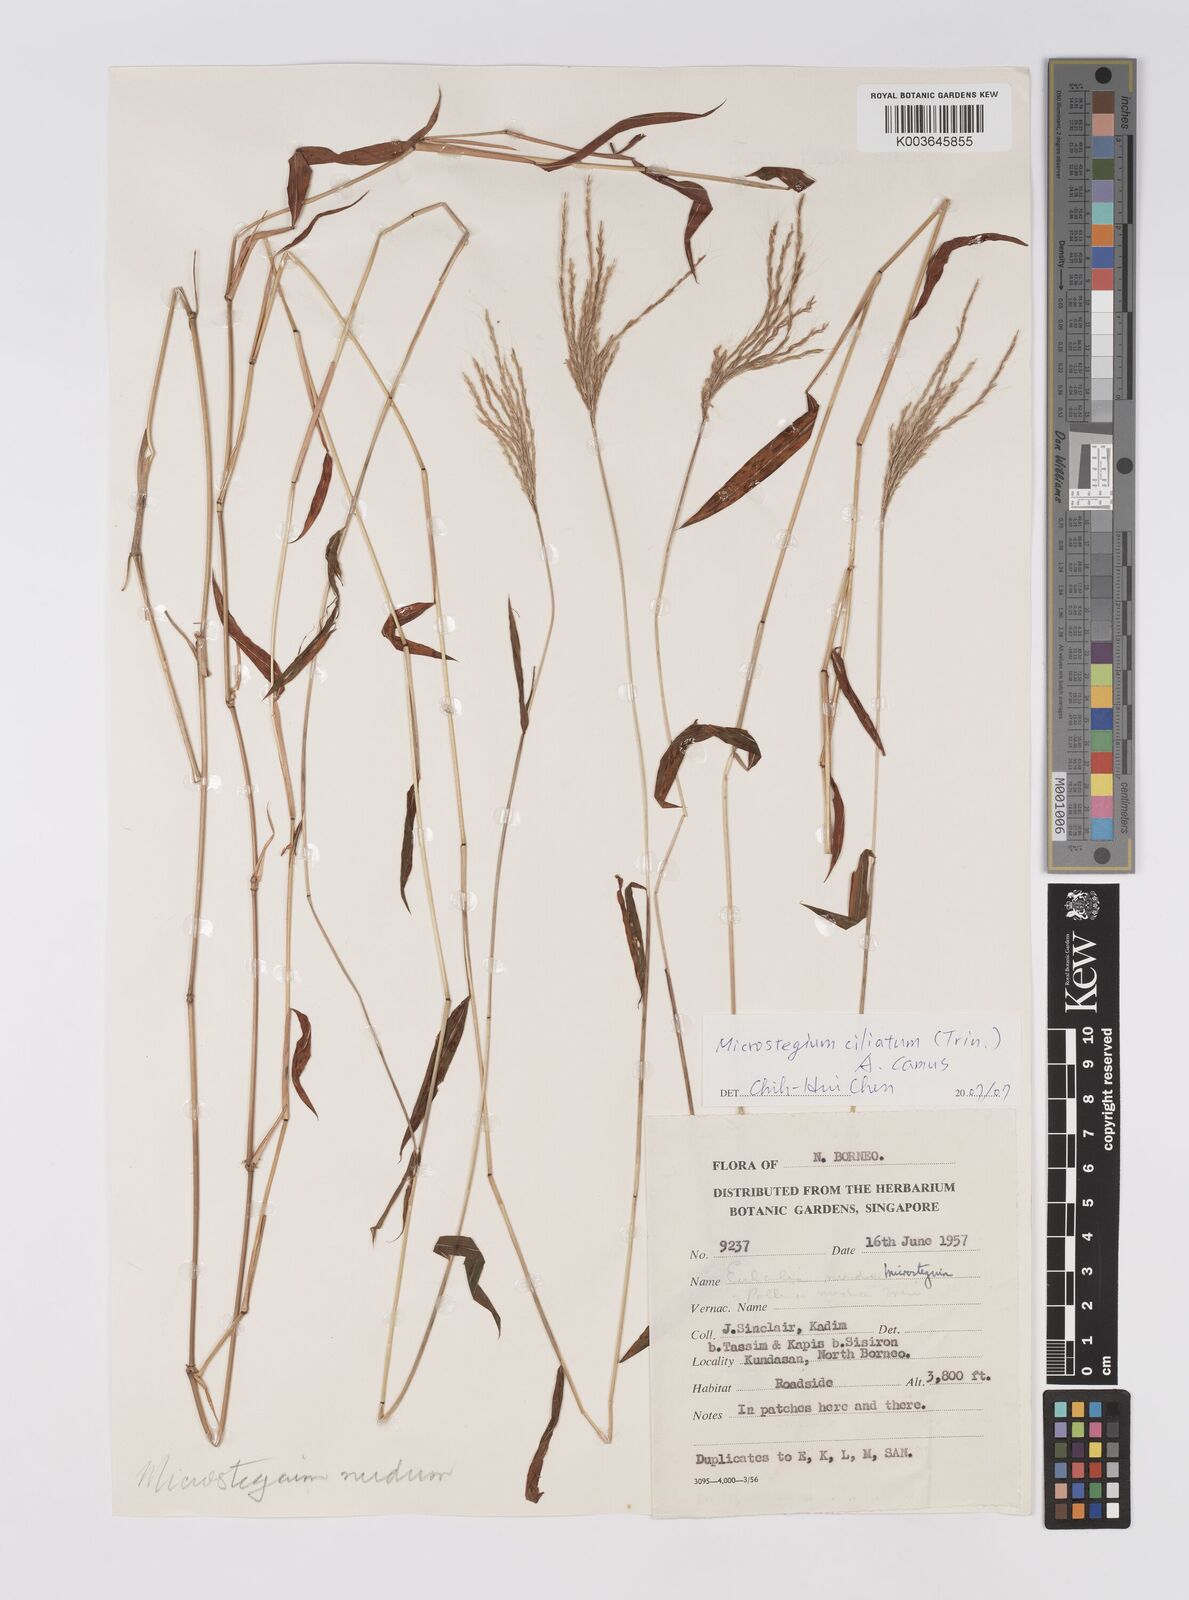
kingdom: Plantae
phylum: Tracheophyta
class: Liliopsida
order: Poales
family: Poaceae
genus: Microstegium
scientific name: Microstegium fasciculatum
